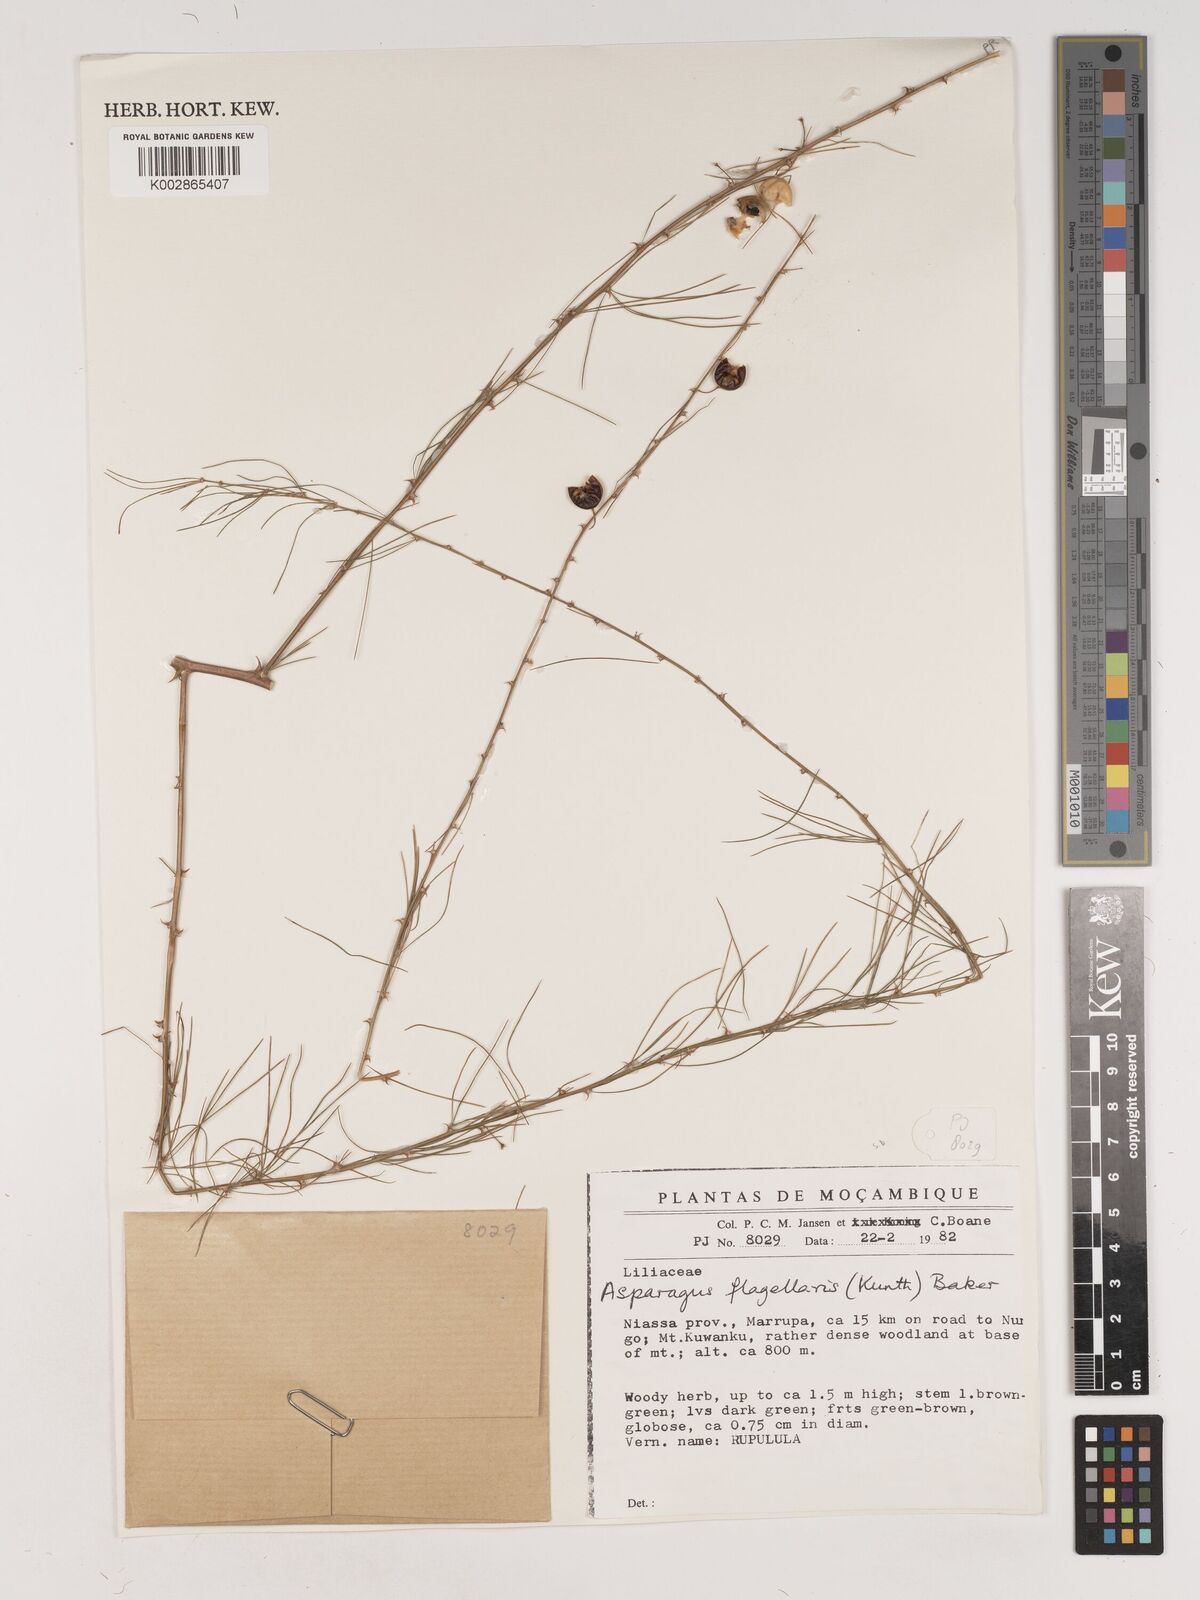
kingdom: Plantae
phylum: Tracheophyta
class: Liliopsida
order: Asparagales
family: Asparagaceae
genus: Asparagus
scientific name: Asparagus flagellaris
